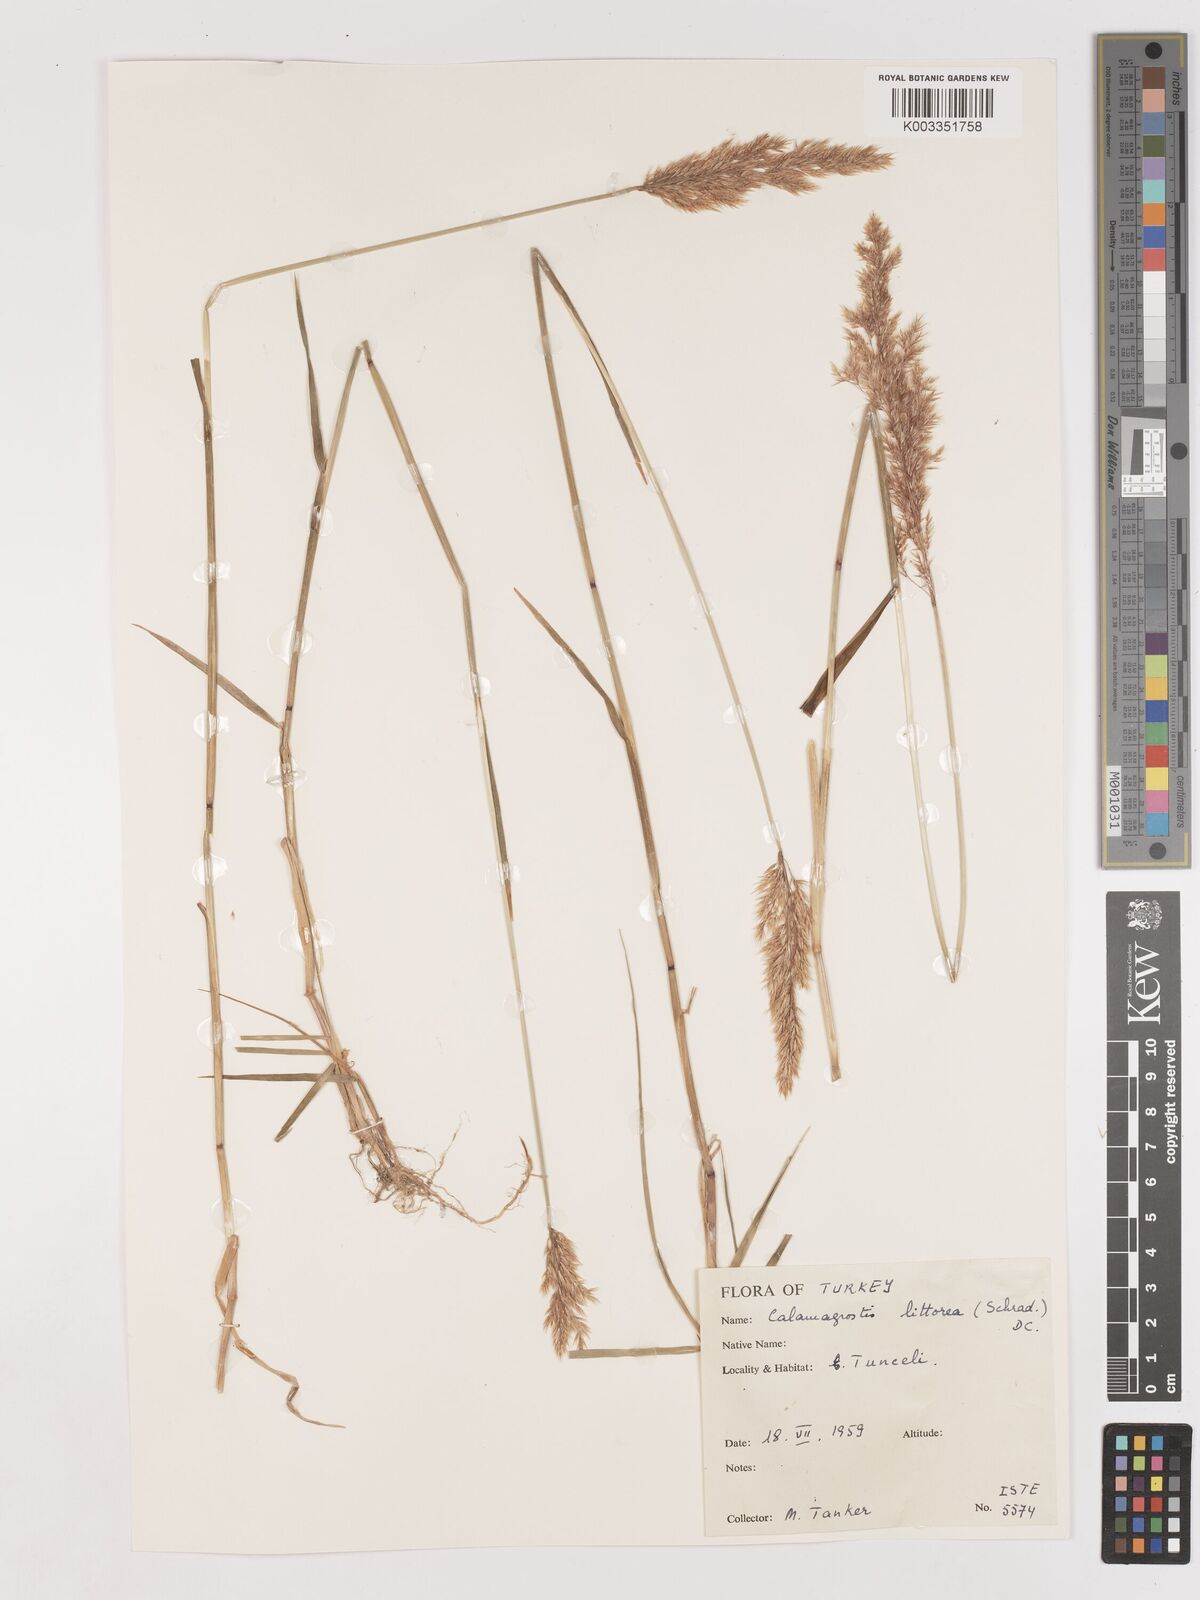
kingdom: Plantae
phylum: Tracheophyta
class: Liliopsida
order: Poales
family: Poaceae
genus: Calamagrostis
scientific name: Calamagrostis pseudophragmites
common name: Coastal small-reed
